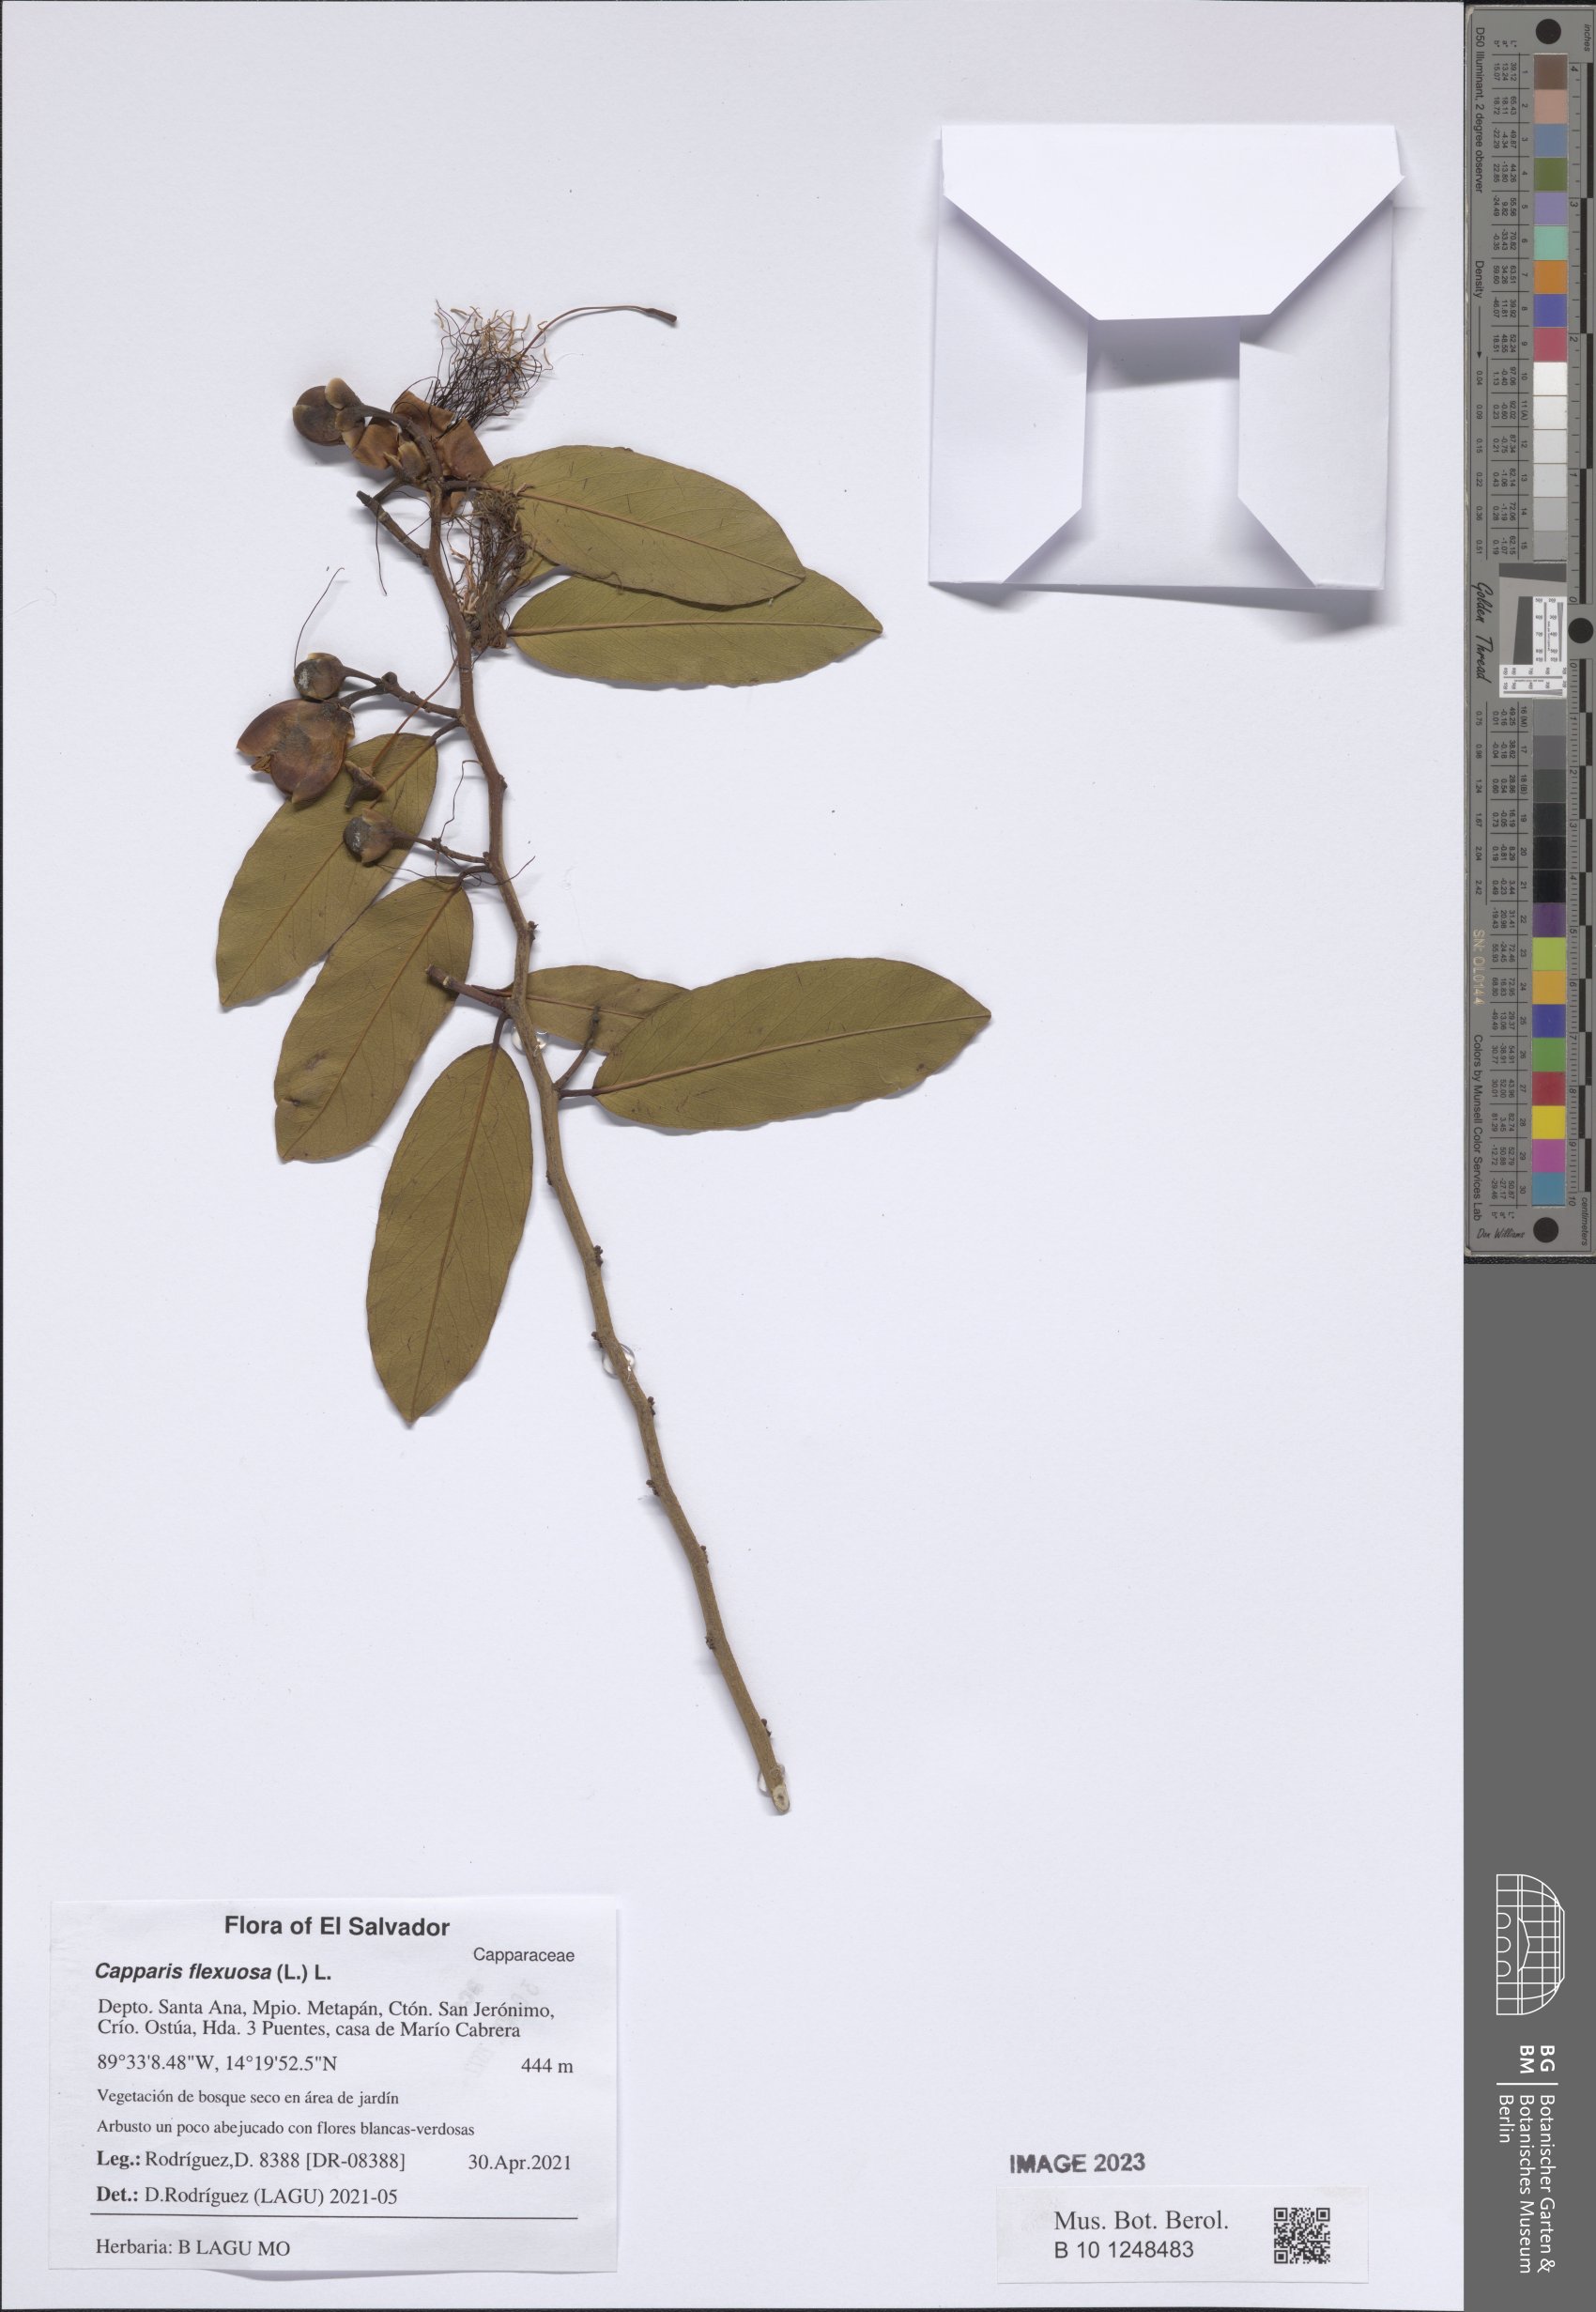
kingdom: Plantae
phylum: Tracheophyta
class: Magnoliopsida
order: Brassicales
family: Capparaceae
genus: Cynophalla
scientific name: Cynophalla flexuosa
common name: Capertree
